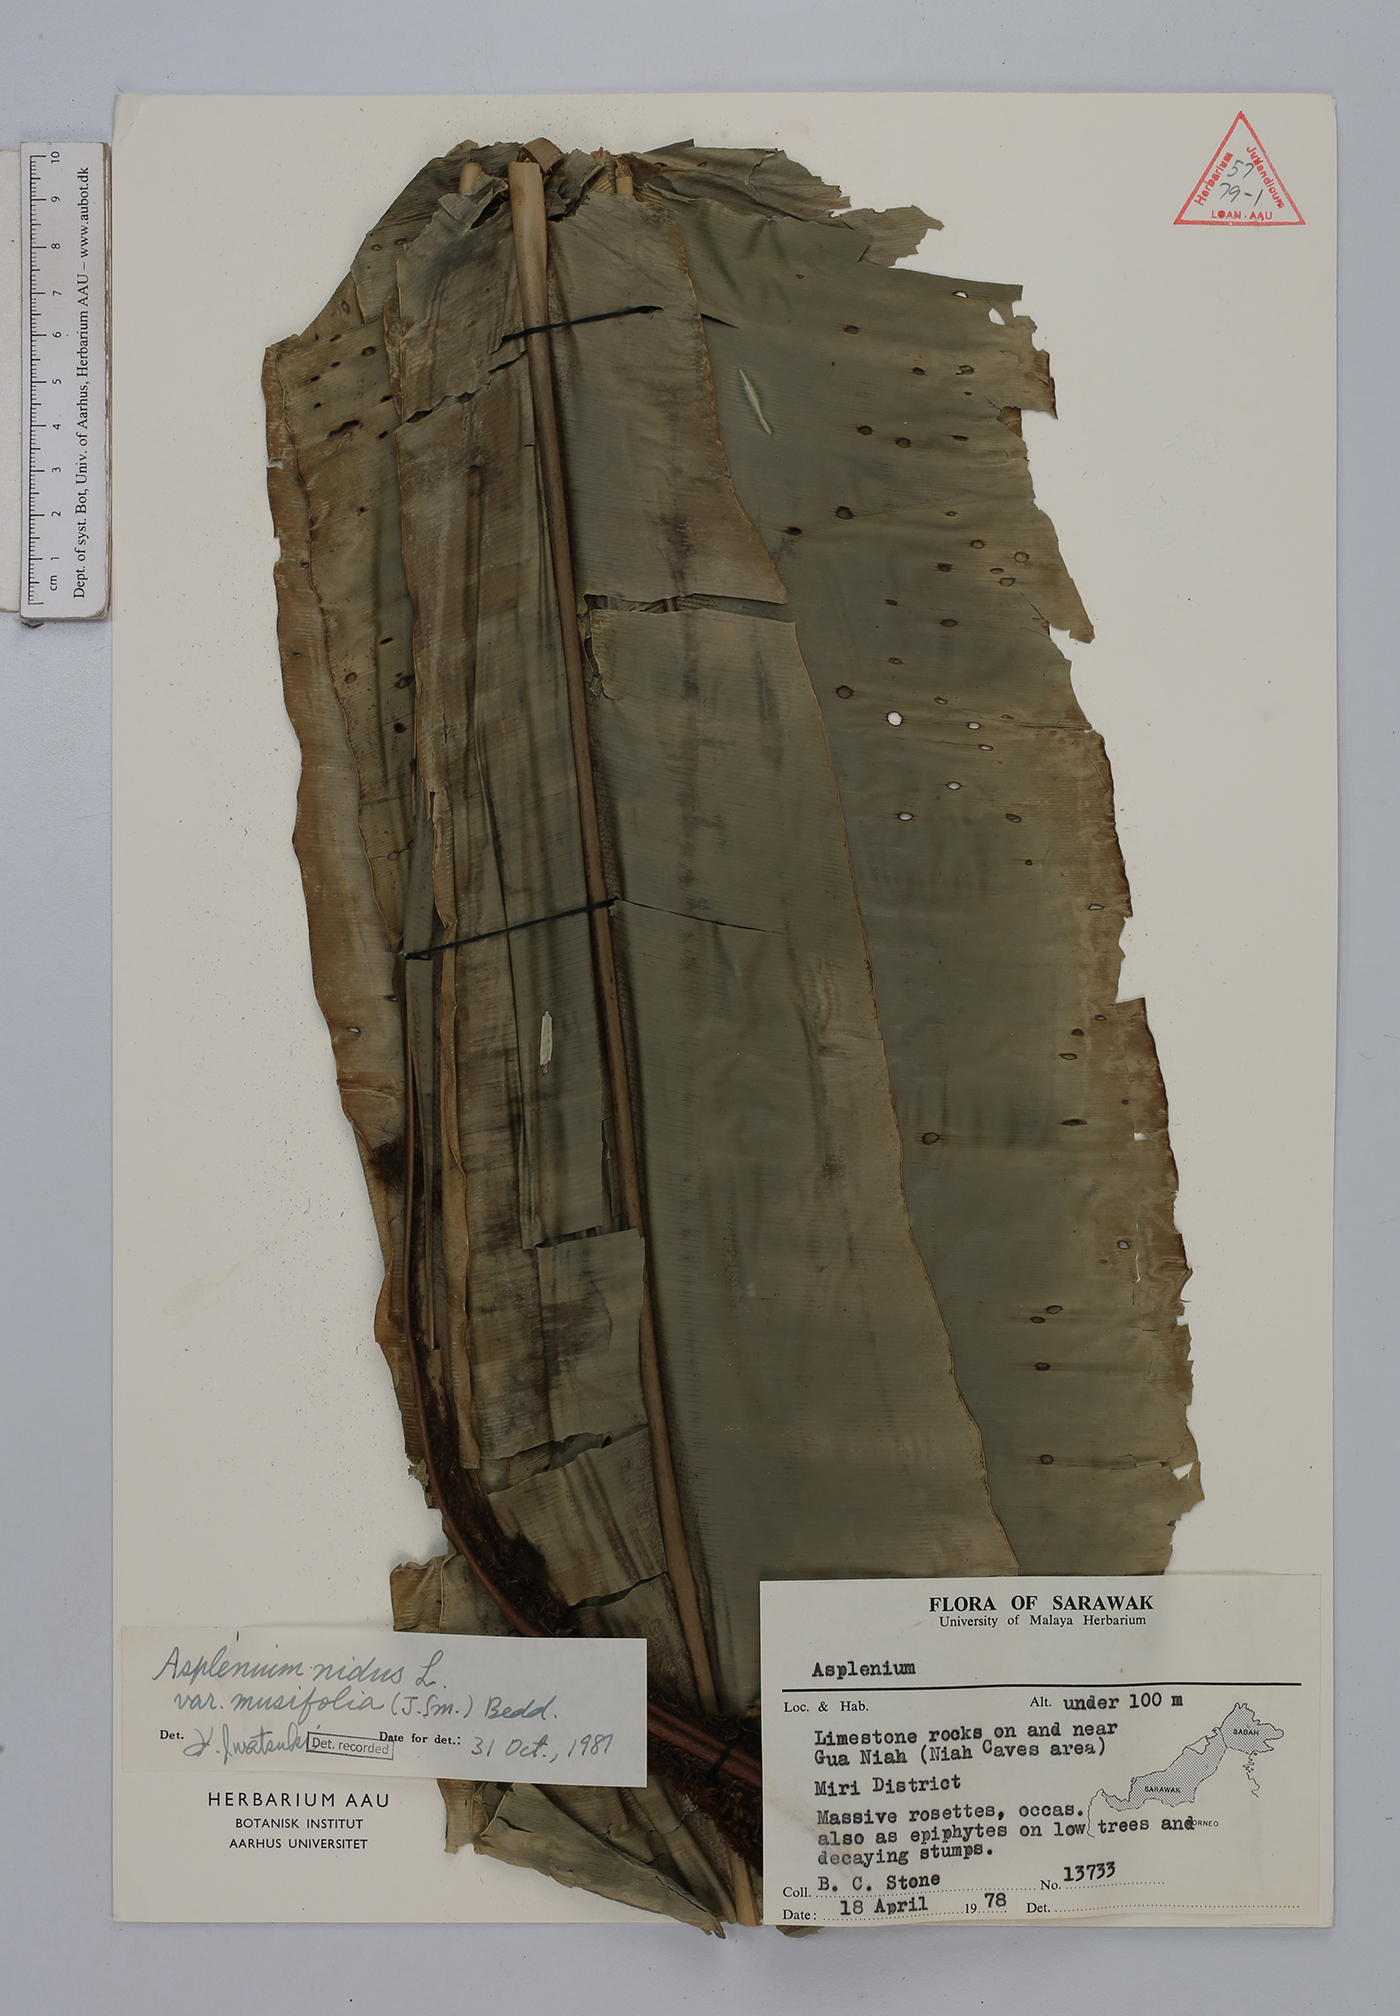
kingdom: Plantae
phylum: Tracheophyta
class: Polypodiopsida
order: Polypodiales
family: Aspleniaceae
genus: Asplenium
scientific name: Asplenium nidus
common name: Bird's-nest fern
